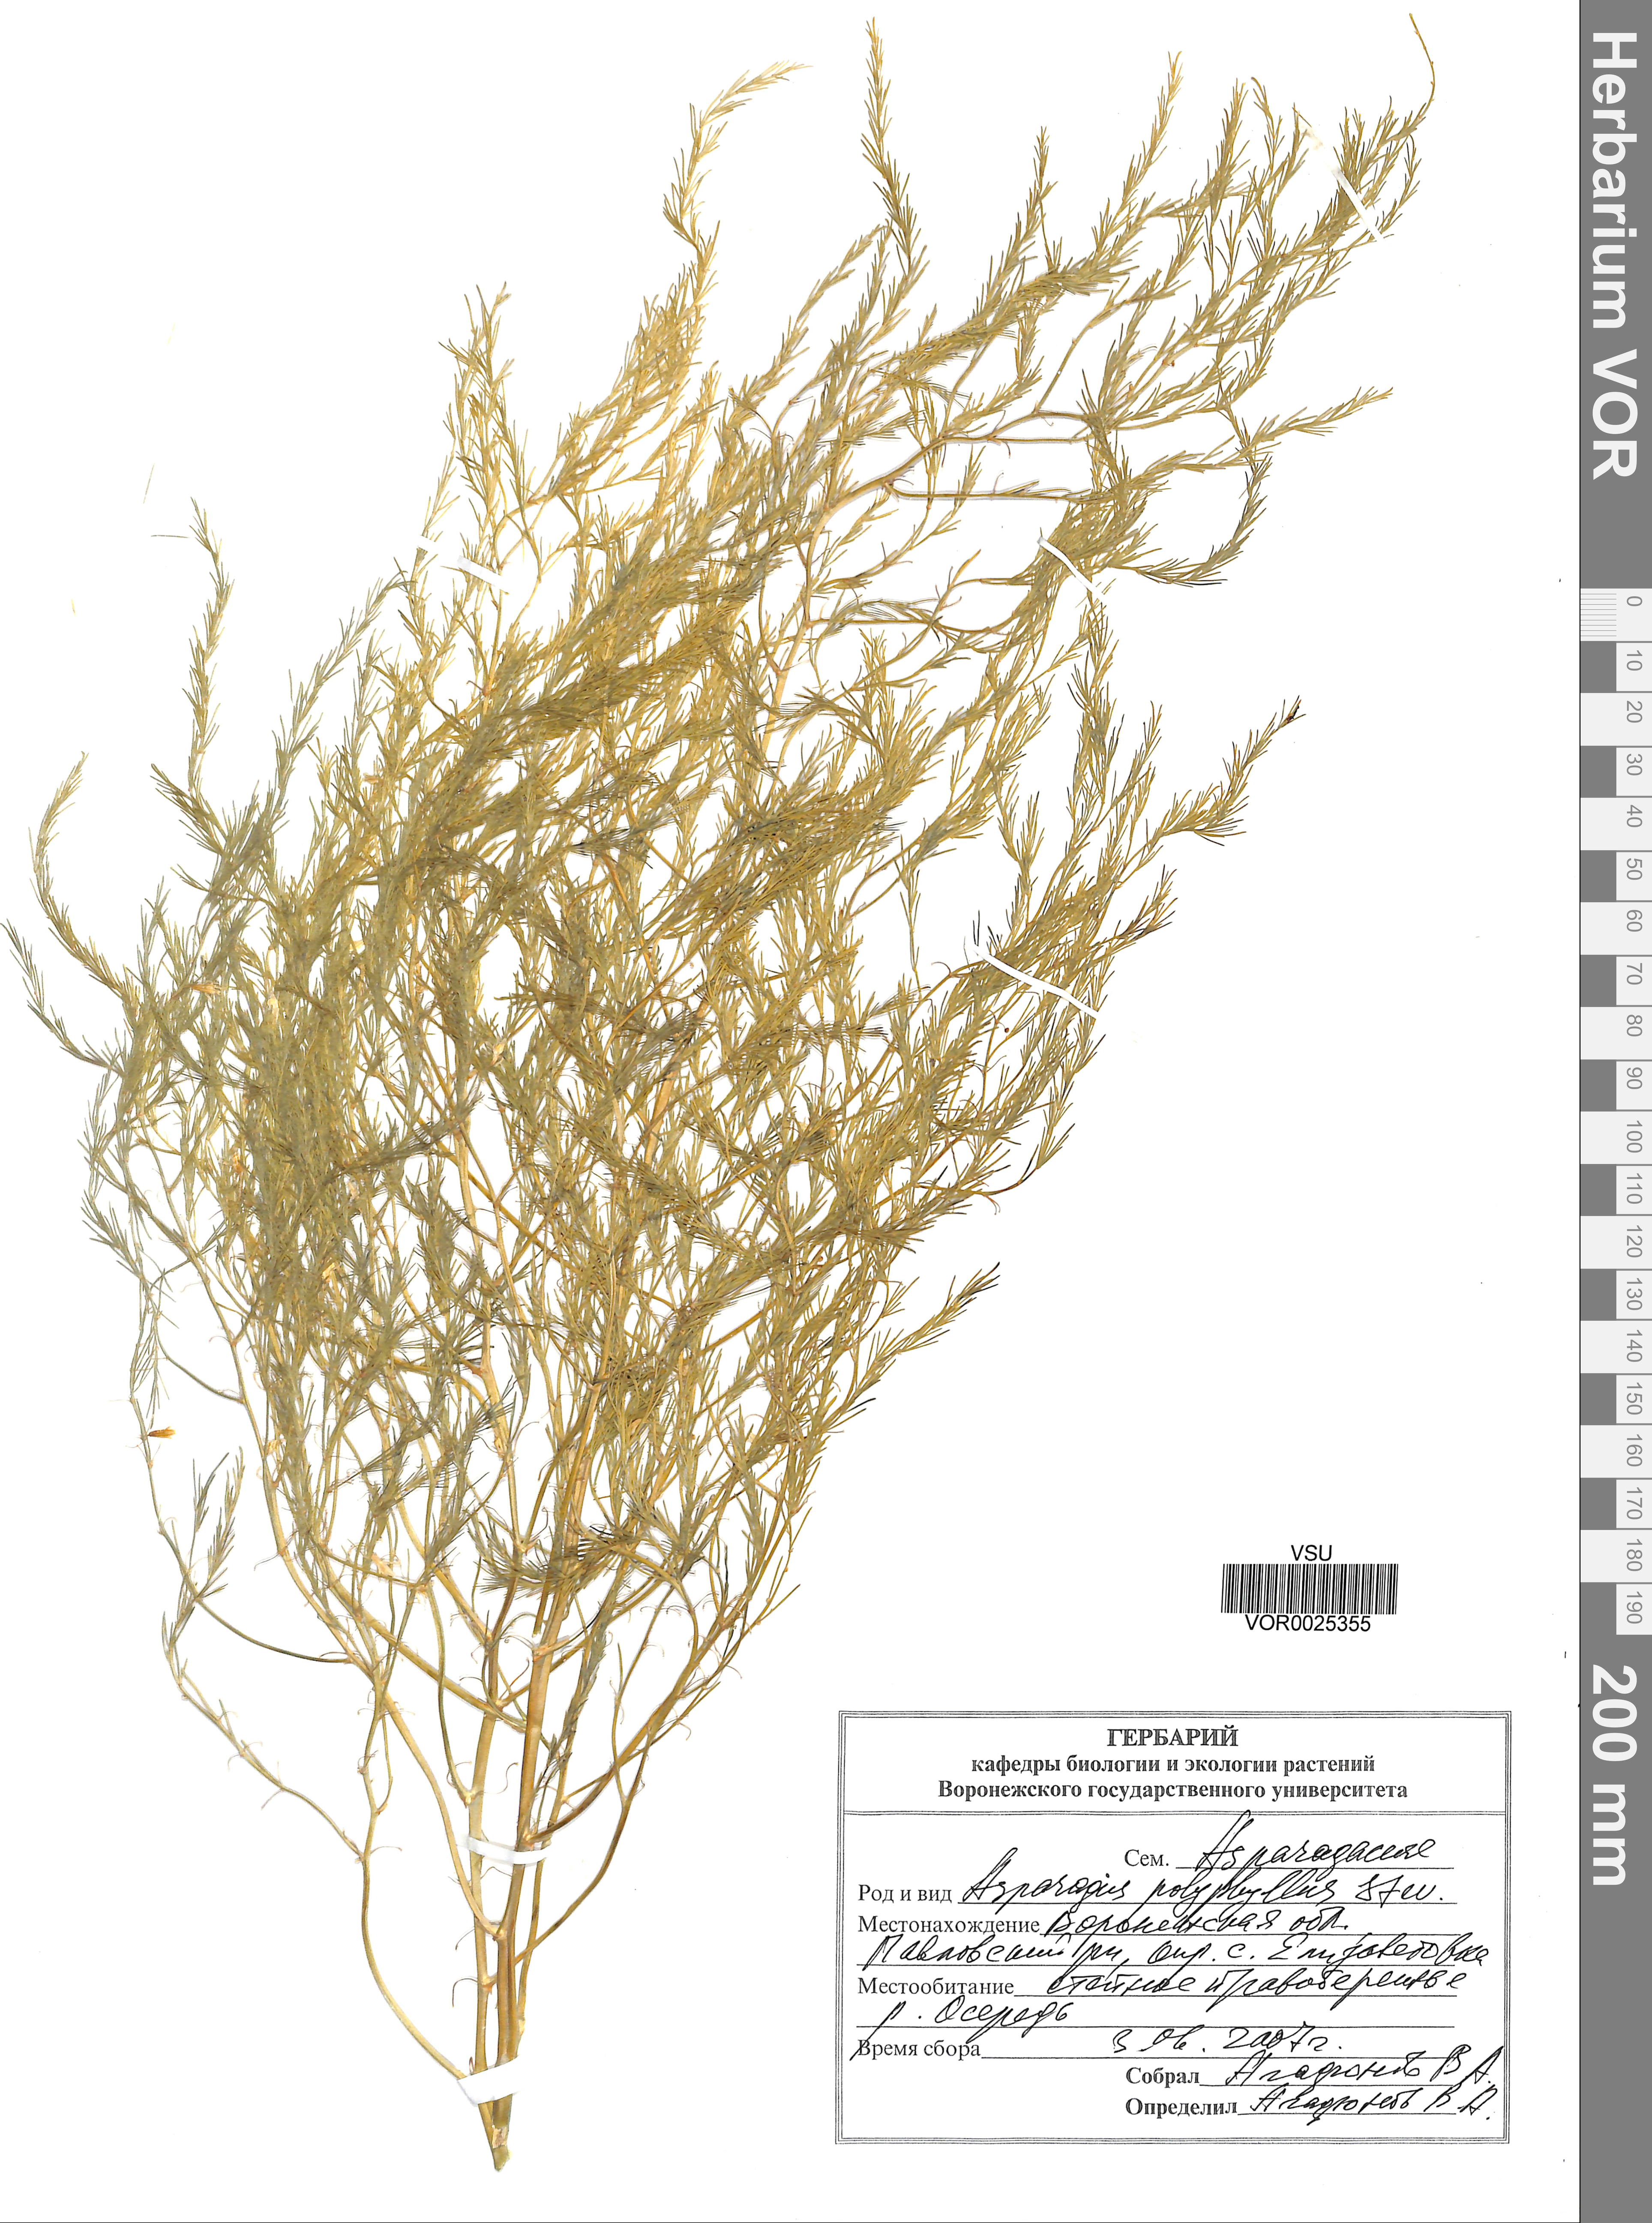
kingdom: Plantae
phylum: Tracheophyta
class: Liliopsida
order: Asparagales
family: Asparagaceae
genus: Asparagus
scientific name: Asparagus officinalis
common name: Garden asparagus
